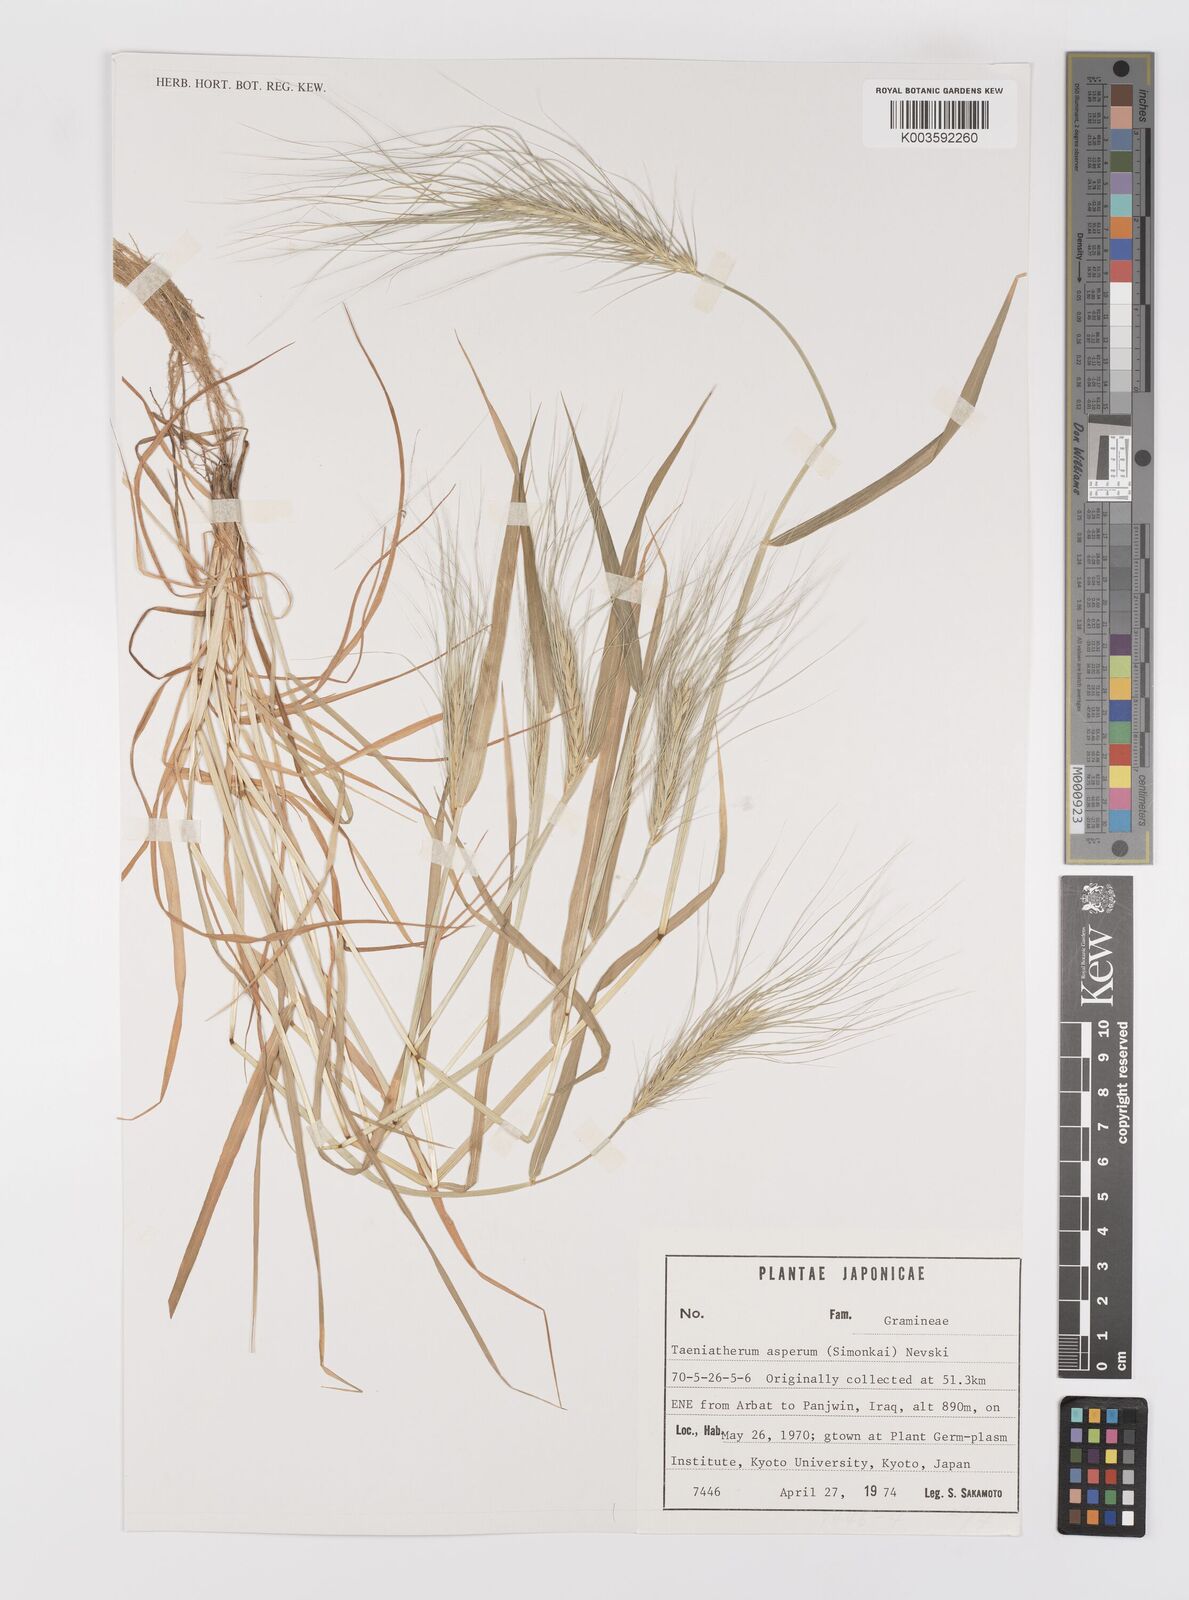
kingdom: Plantae
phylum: Tracheophyta
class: Liliopsida
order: Poales
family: Poaceae
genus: Taeniatherum
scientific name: Taeniatherum caput-medusae
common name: Medusahead
